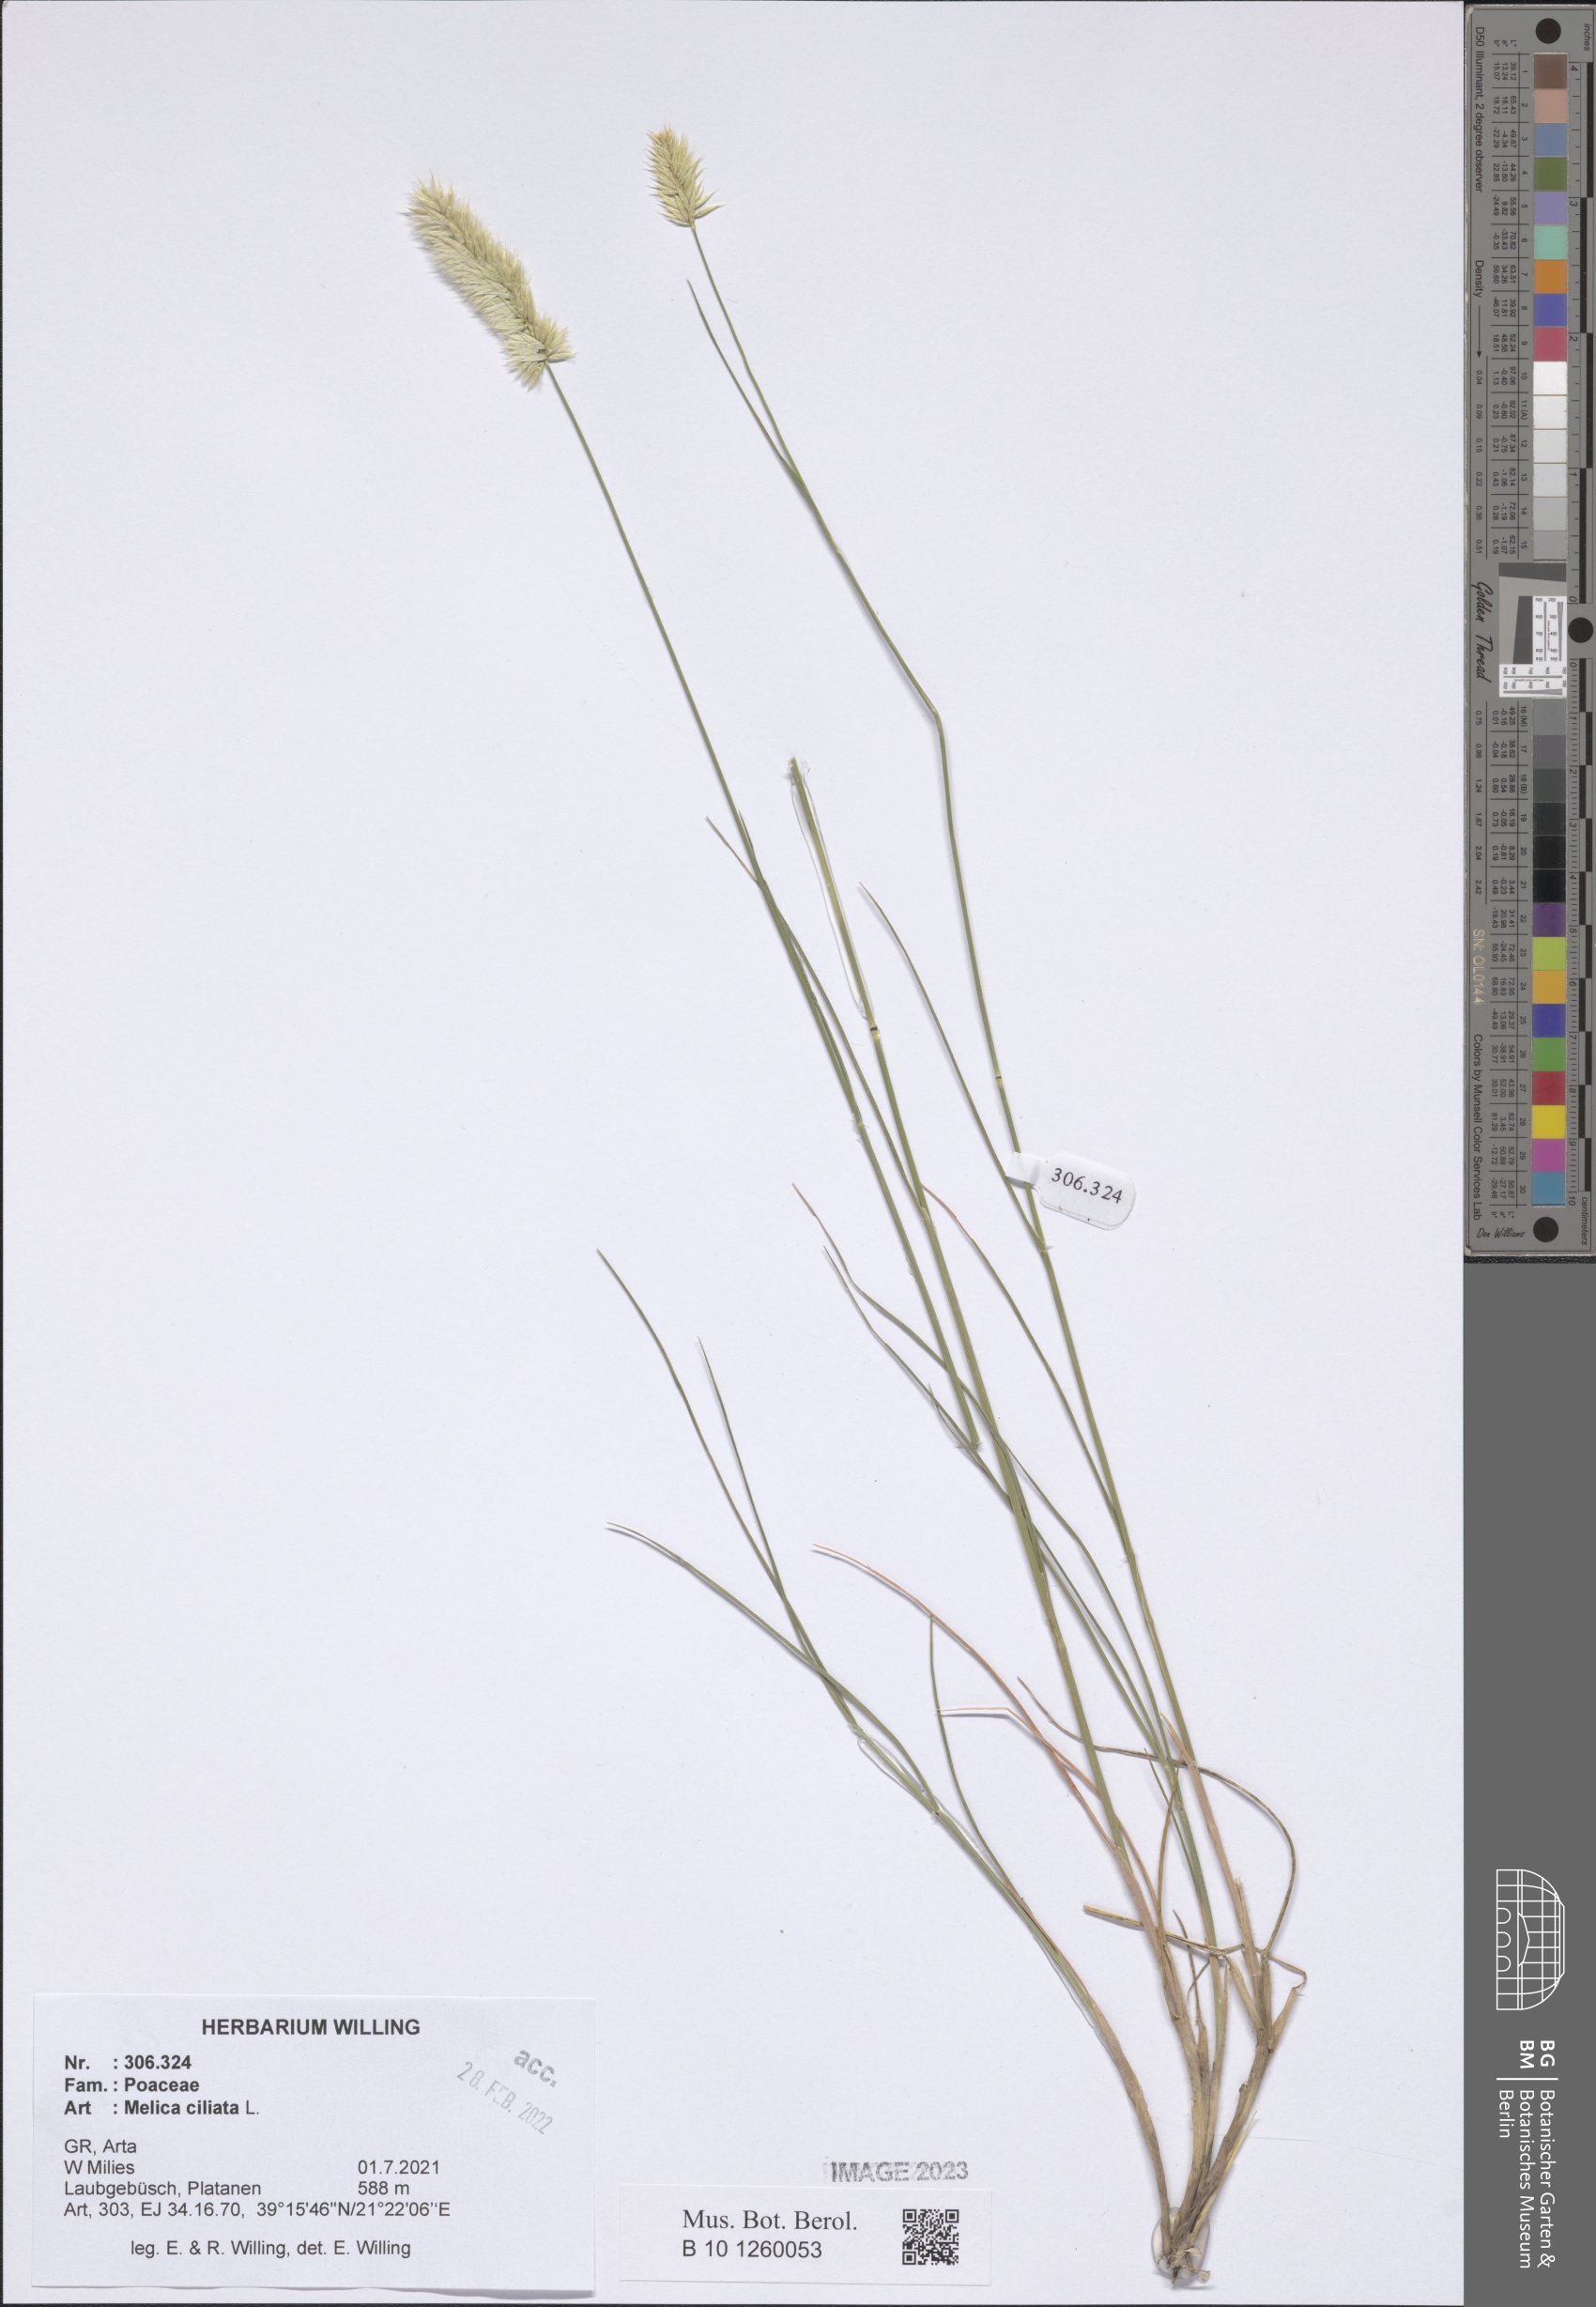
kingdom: Plantae
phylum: Tracheophyta
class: Liliopsida
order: Poales
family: Poaceae
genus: Melica
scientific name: Melica ciliata
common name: Hairy melicgrass
